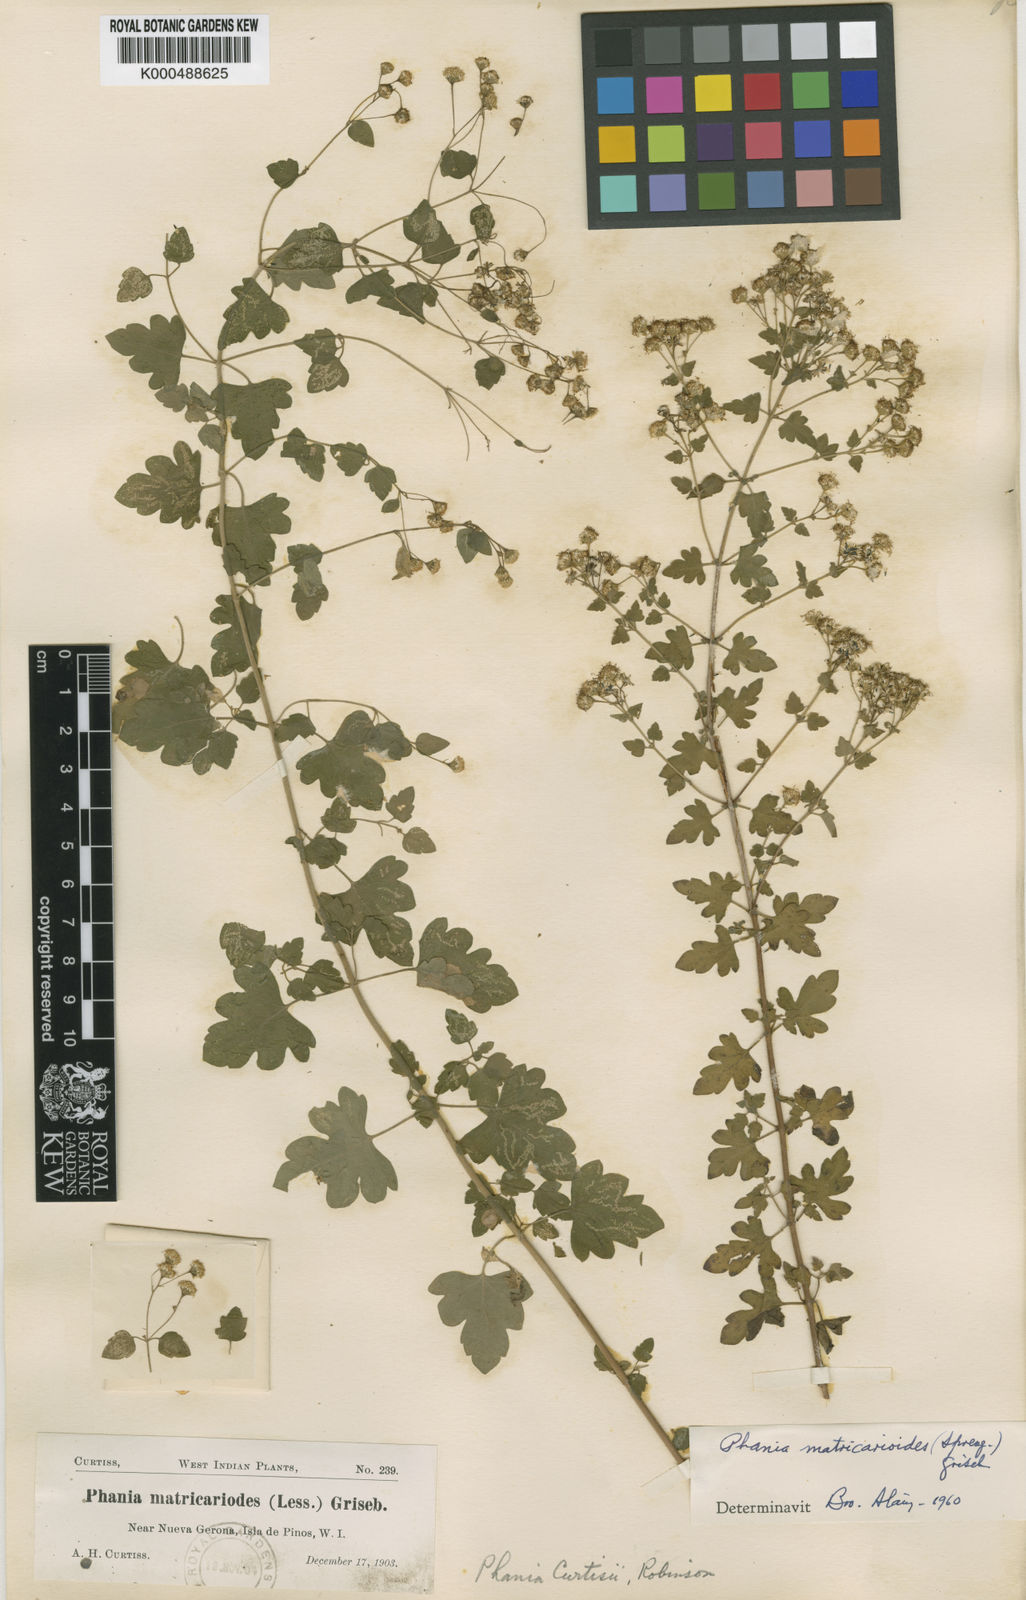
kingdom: Plantae
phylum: Tracheophyta
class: Magnoliopsida
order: Asterales
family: Asteraceae
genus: Phania
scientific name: Phania matricarioides
